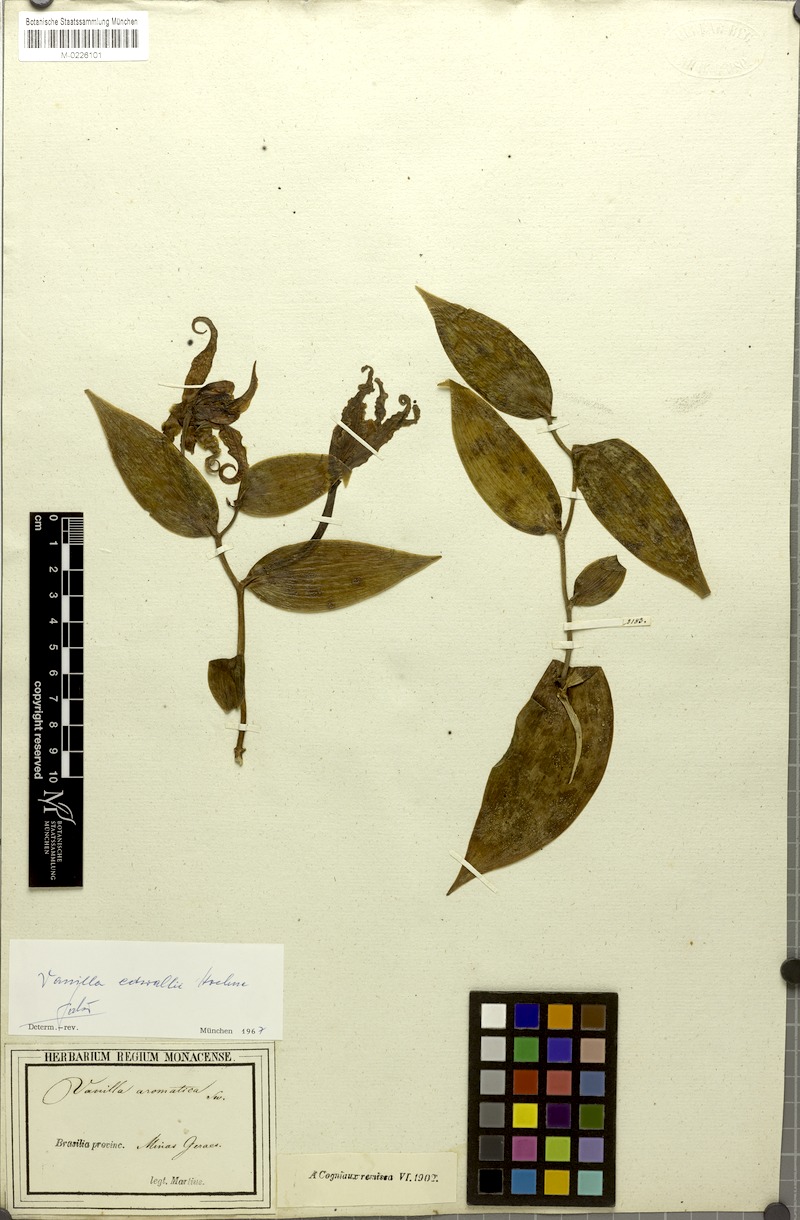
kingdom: Plantae
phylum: Tracheophyta
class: Liliopsida
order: Asparagales
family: Orchidaceae
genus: Vanilla
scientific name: Vanilla edwallii
